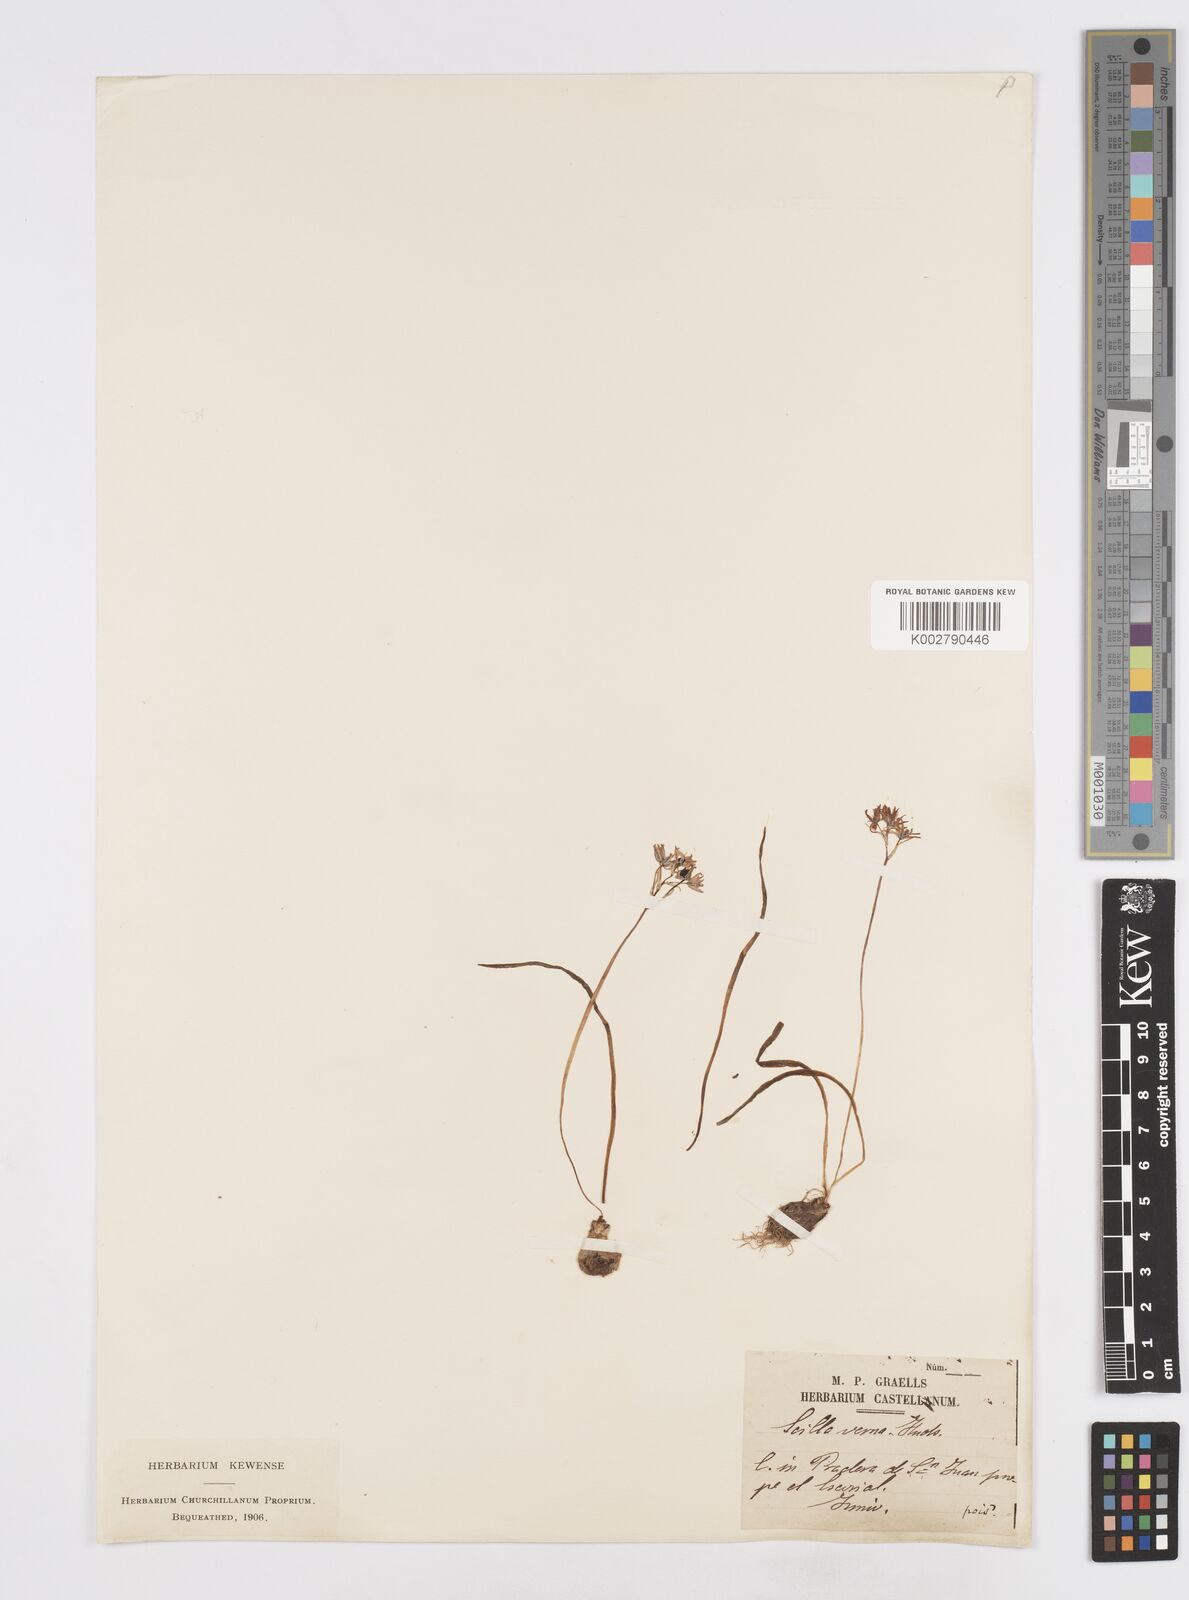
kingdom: Plantae
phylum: Tracheophyta
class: Liliopsida
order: Asparagales
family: Asparagaceae
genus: Scilla
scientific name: Scilla verna
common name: Spring squill
